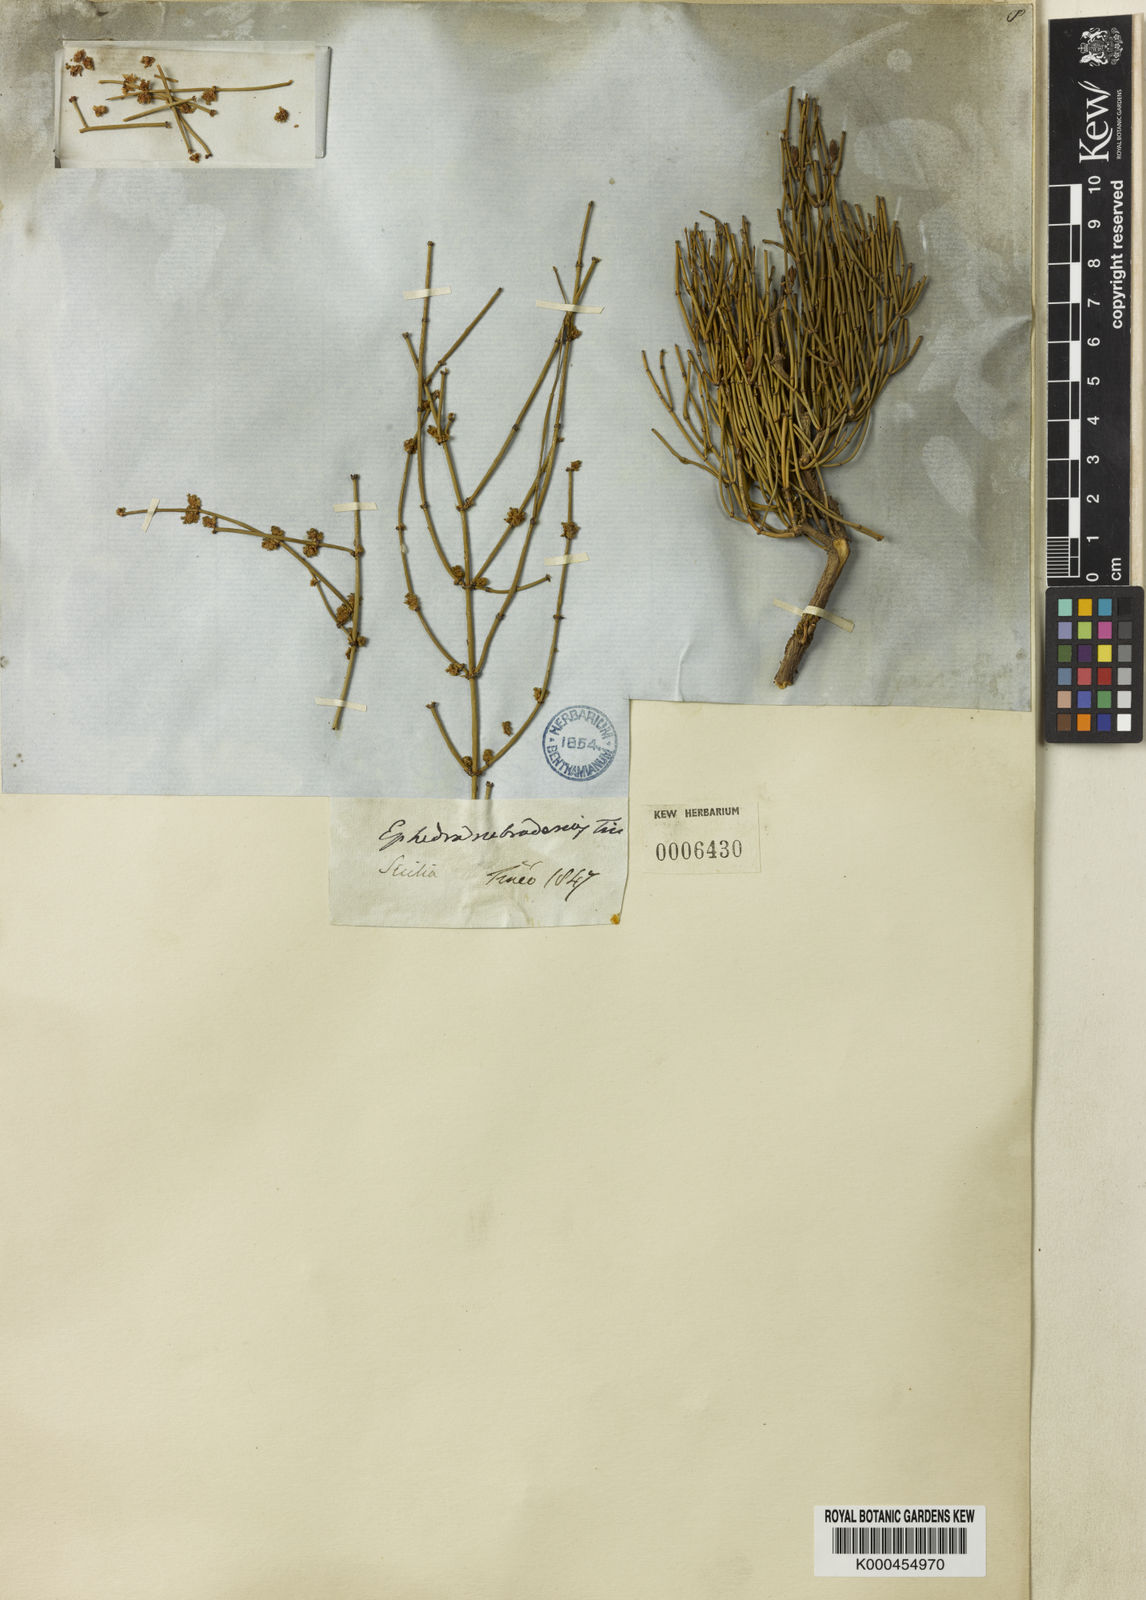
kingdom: Plantae
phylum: Tracheophyta
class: Gnetopsida
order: Ephedrales
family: Ephedraceae
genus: Ephedra
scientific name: Ephedra foeminea
